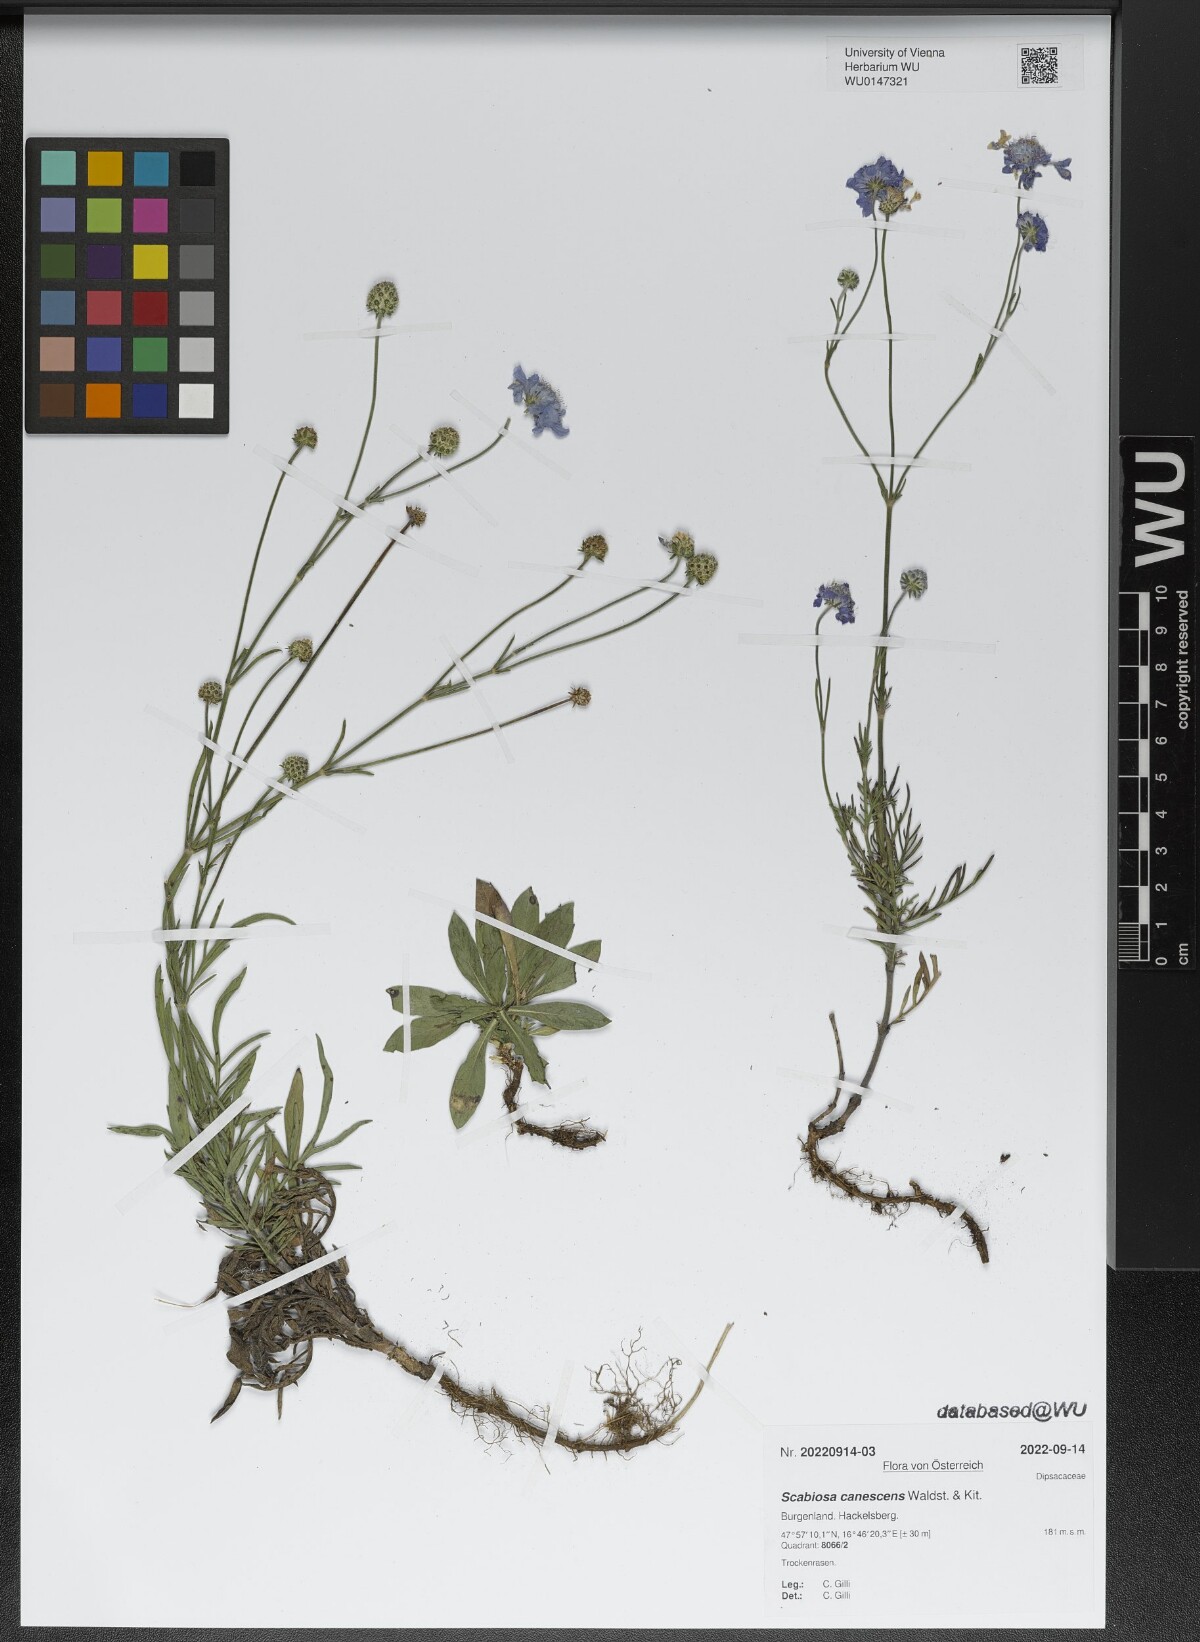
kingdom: Plantae
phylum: Tracheophyta
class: Magnoliopsida
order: Dipsacales
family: Caprifoliaceae
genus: Scabiosa
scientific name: Scabiosa canescens
